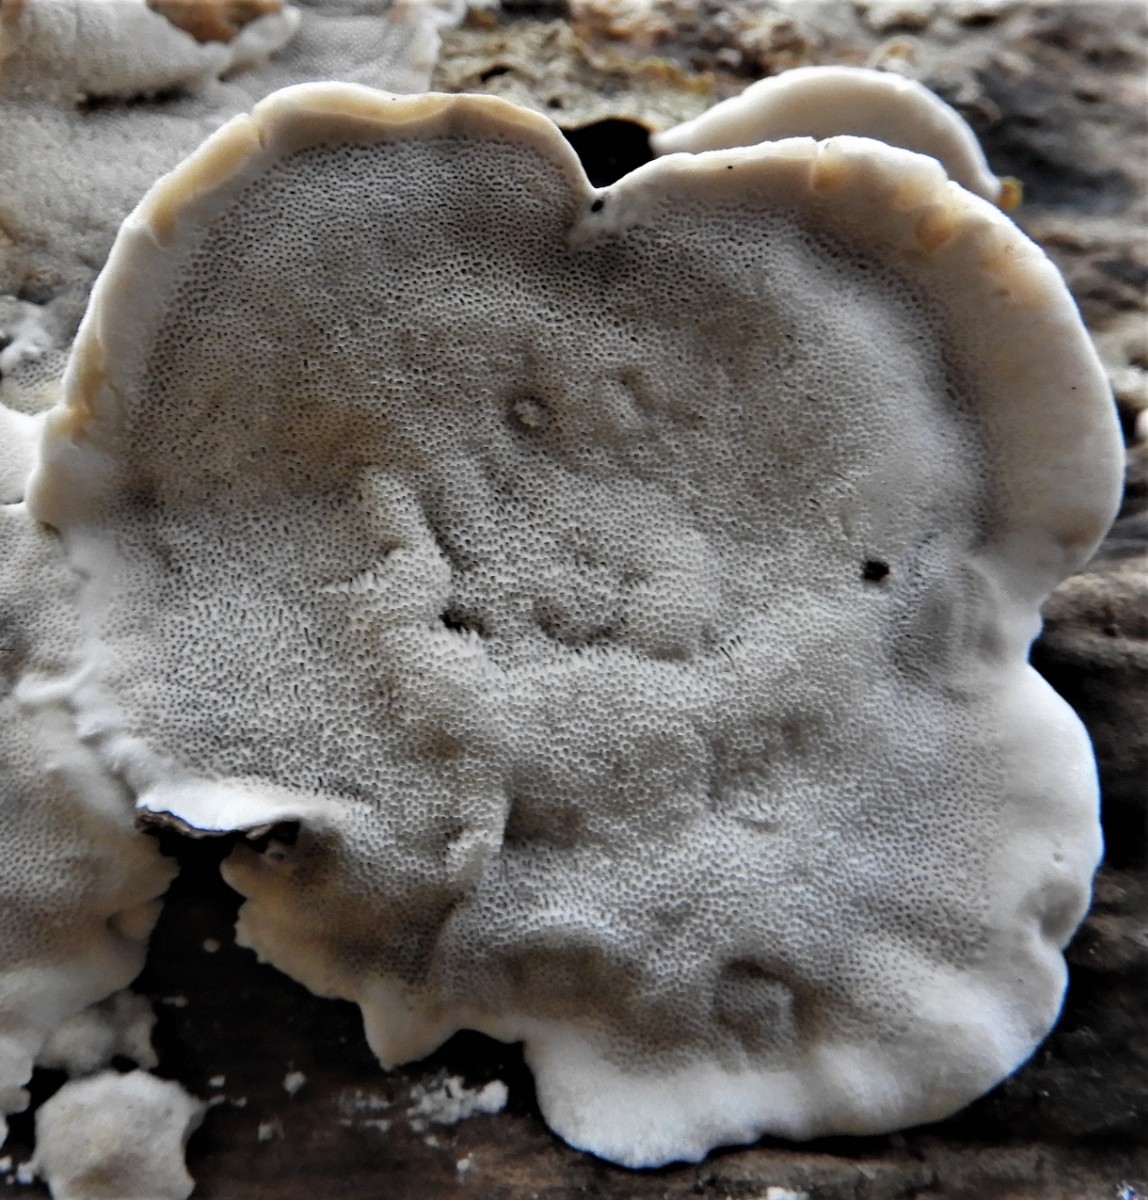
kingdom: Fungi
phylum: Basidiomycota
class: Agaricomycetes
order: Polyporales
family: Phanerochaetaceae
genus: Bjerkandera
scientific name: Bjerkandera adusta
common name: sveden sodporesvamp
